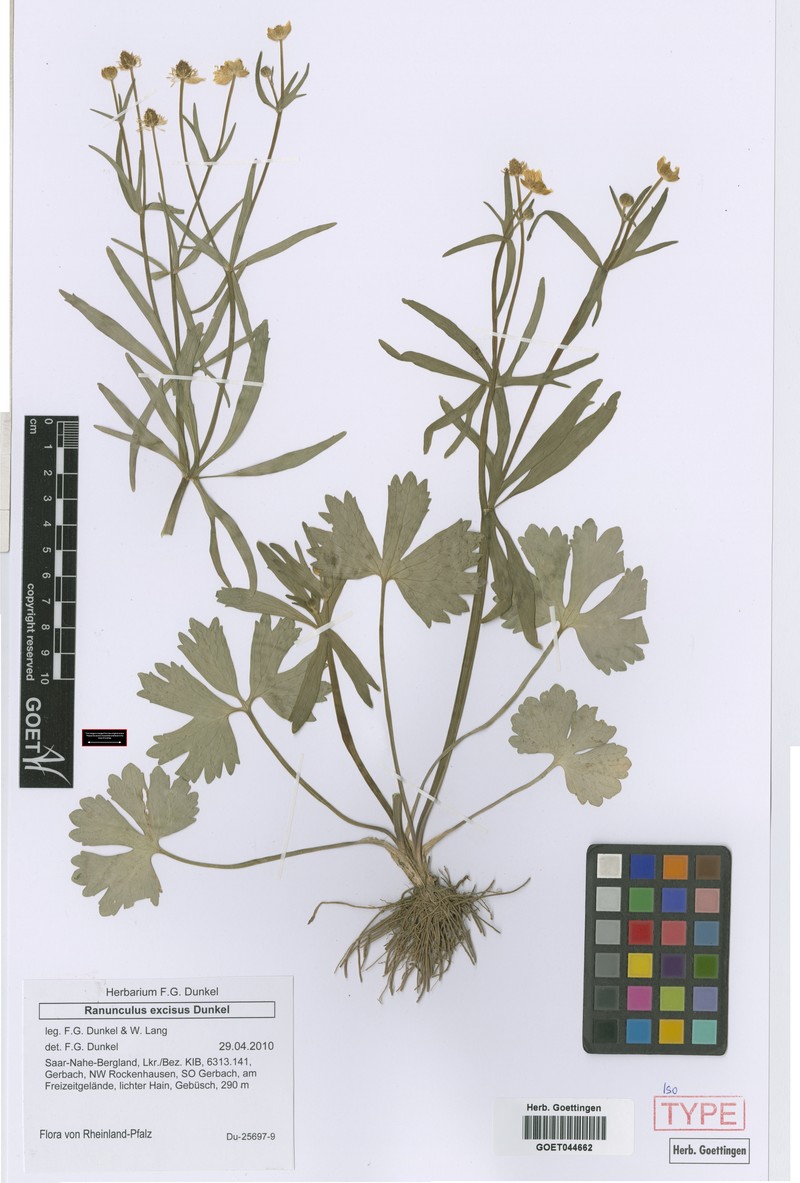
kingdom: Plantae
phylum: Tracheophyta
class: Magnoliopsida
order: Ranunculales
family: Ranunculaceae
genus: Ranunculus
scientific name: Ranunculus excisus
